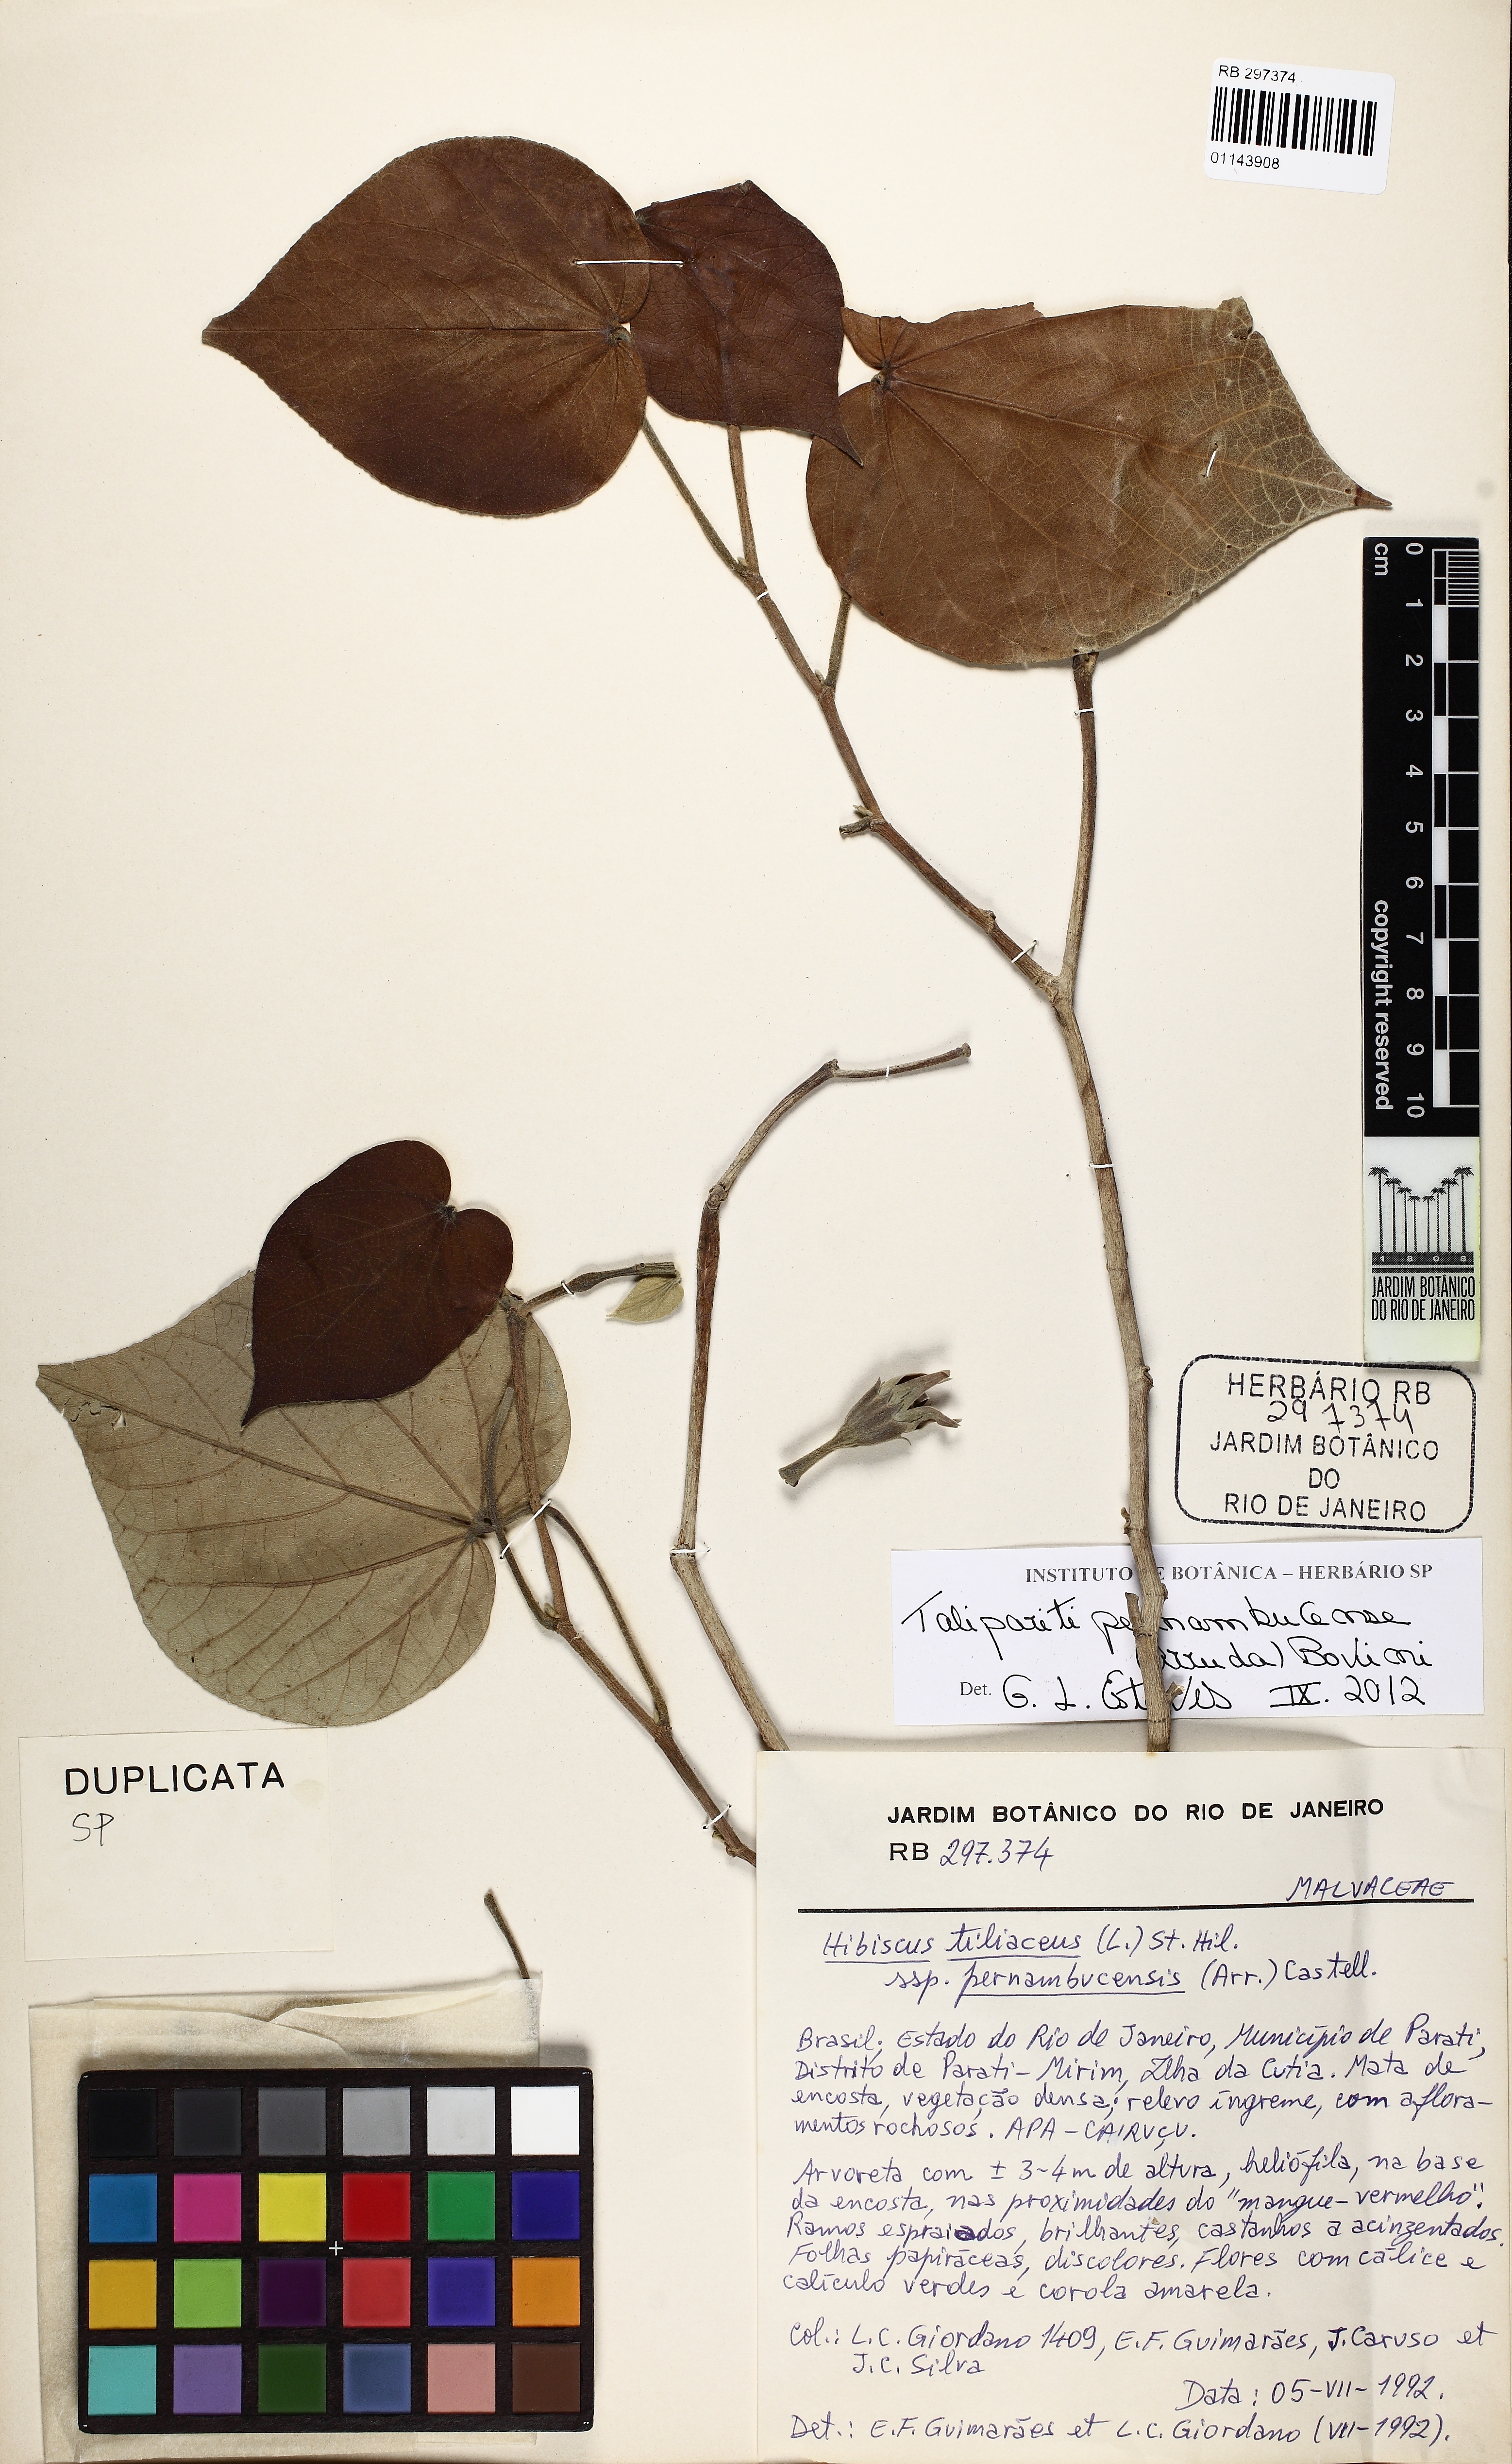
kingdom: Plantae
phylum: Tracheophyta
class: Magnoliopsida
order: Malvales
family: Malvaceae
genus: Talipariti
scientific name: Talipariti pernambucense
